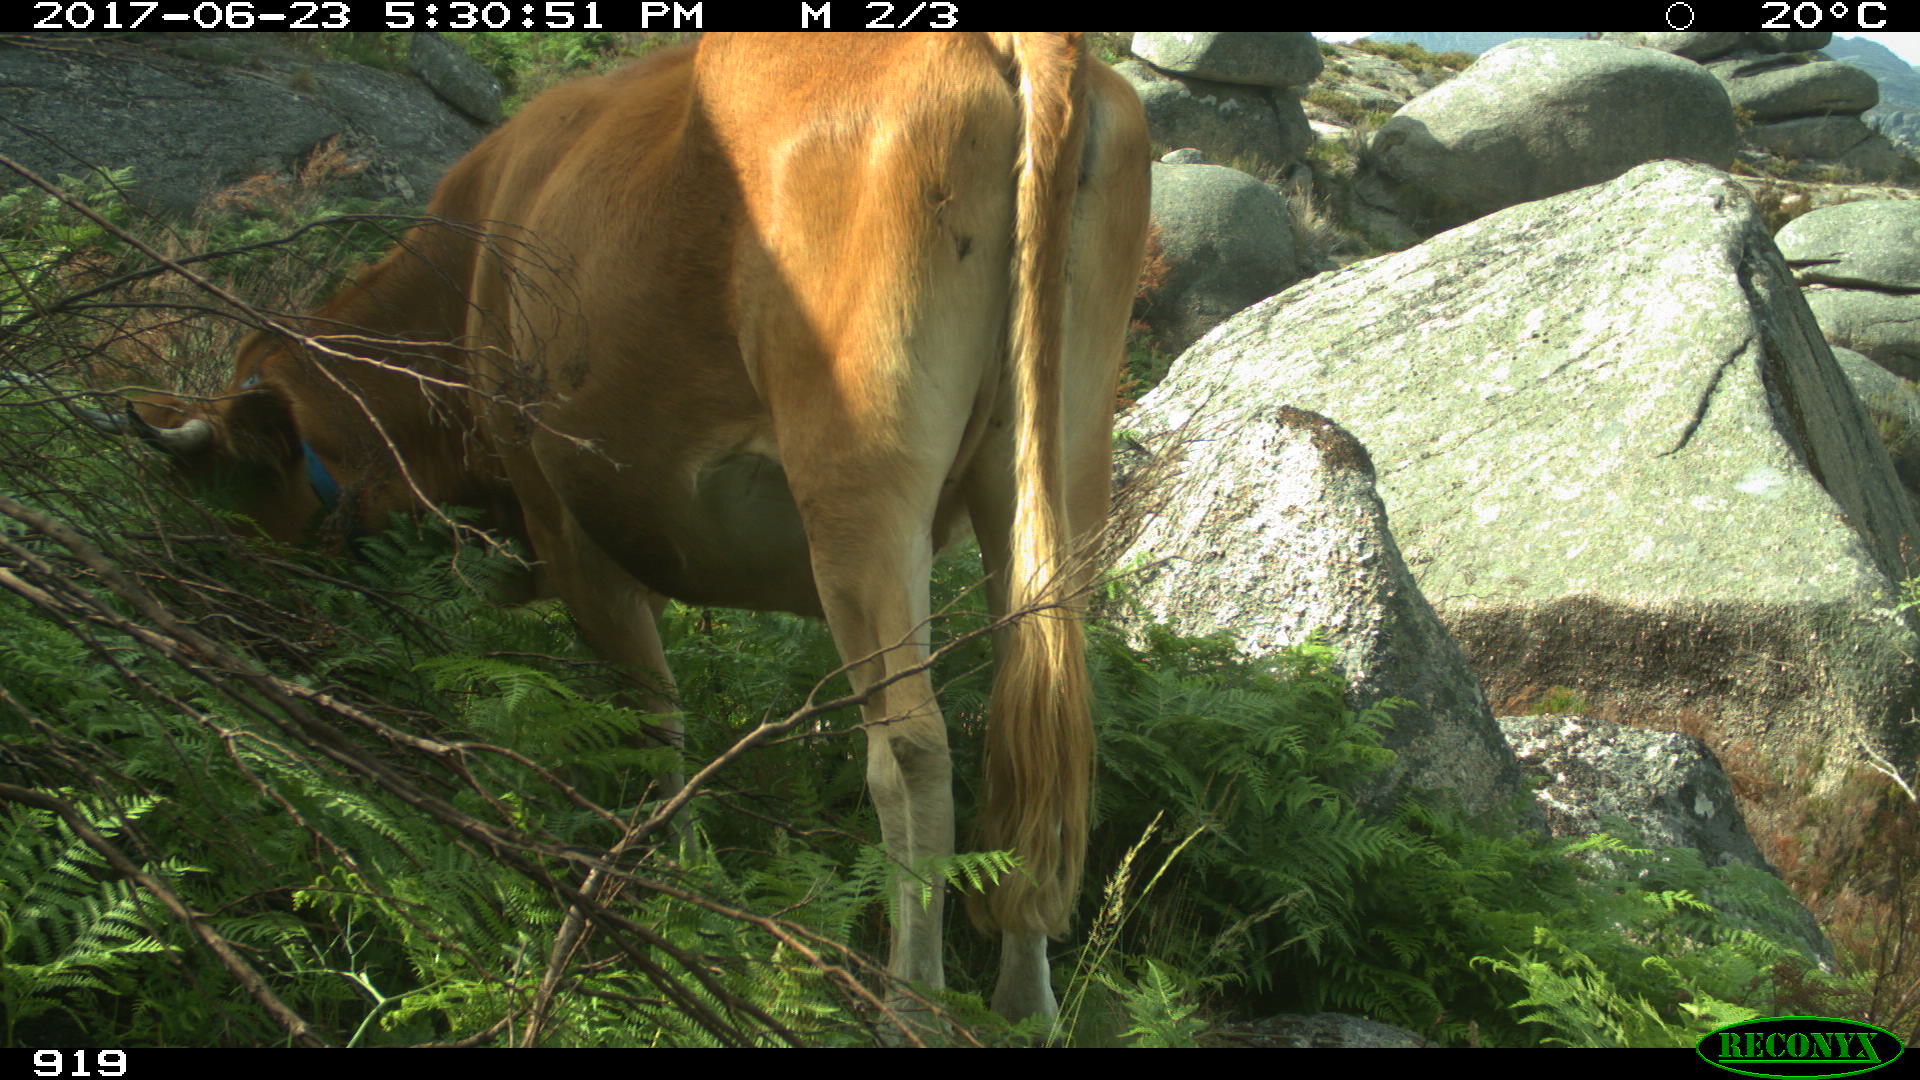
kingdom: Animalia
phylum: Chordata
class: Mammalia
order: Artiodactyla
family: Bovidae
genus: Bos
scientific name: Bos taurus
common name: Domesticated cattle
